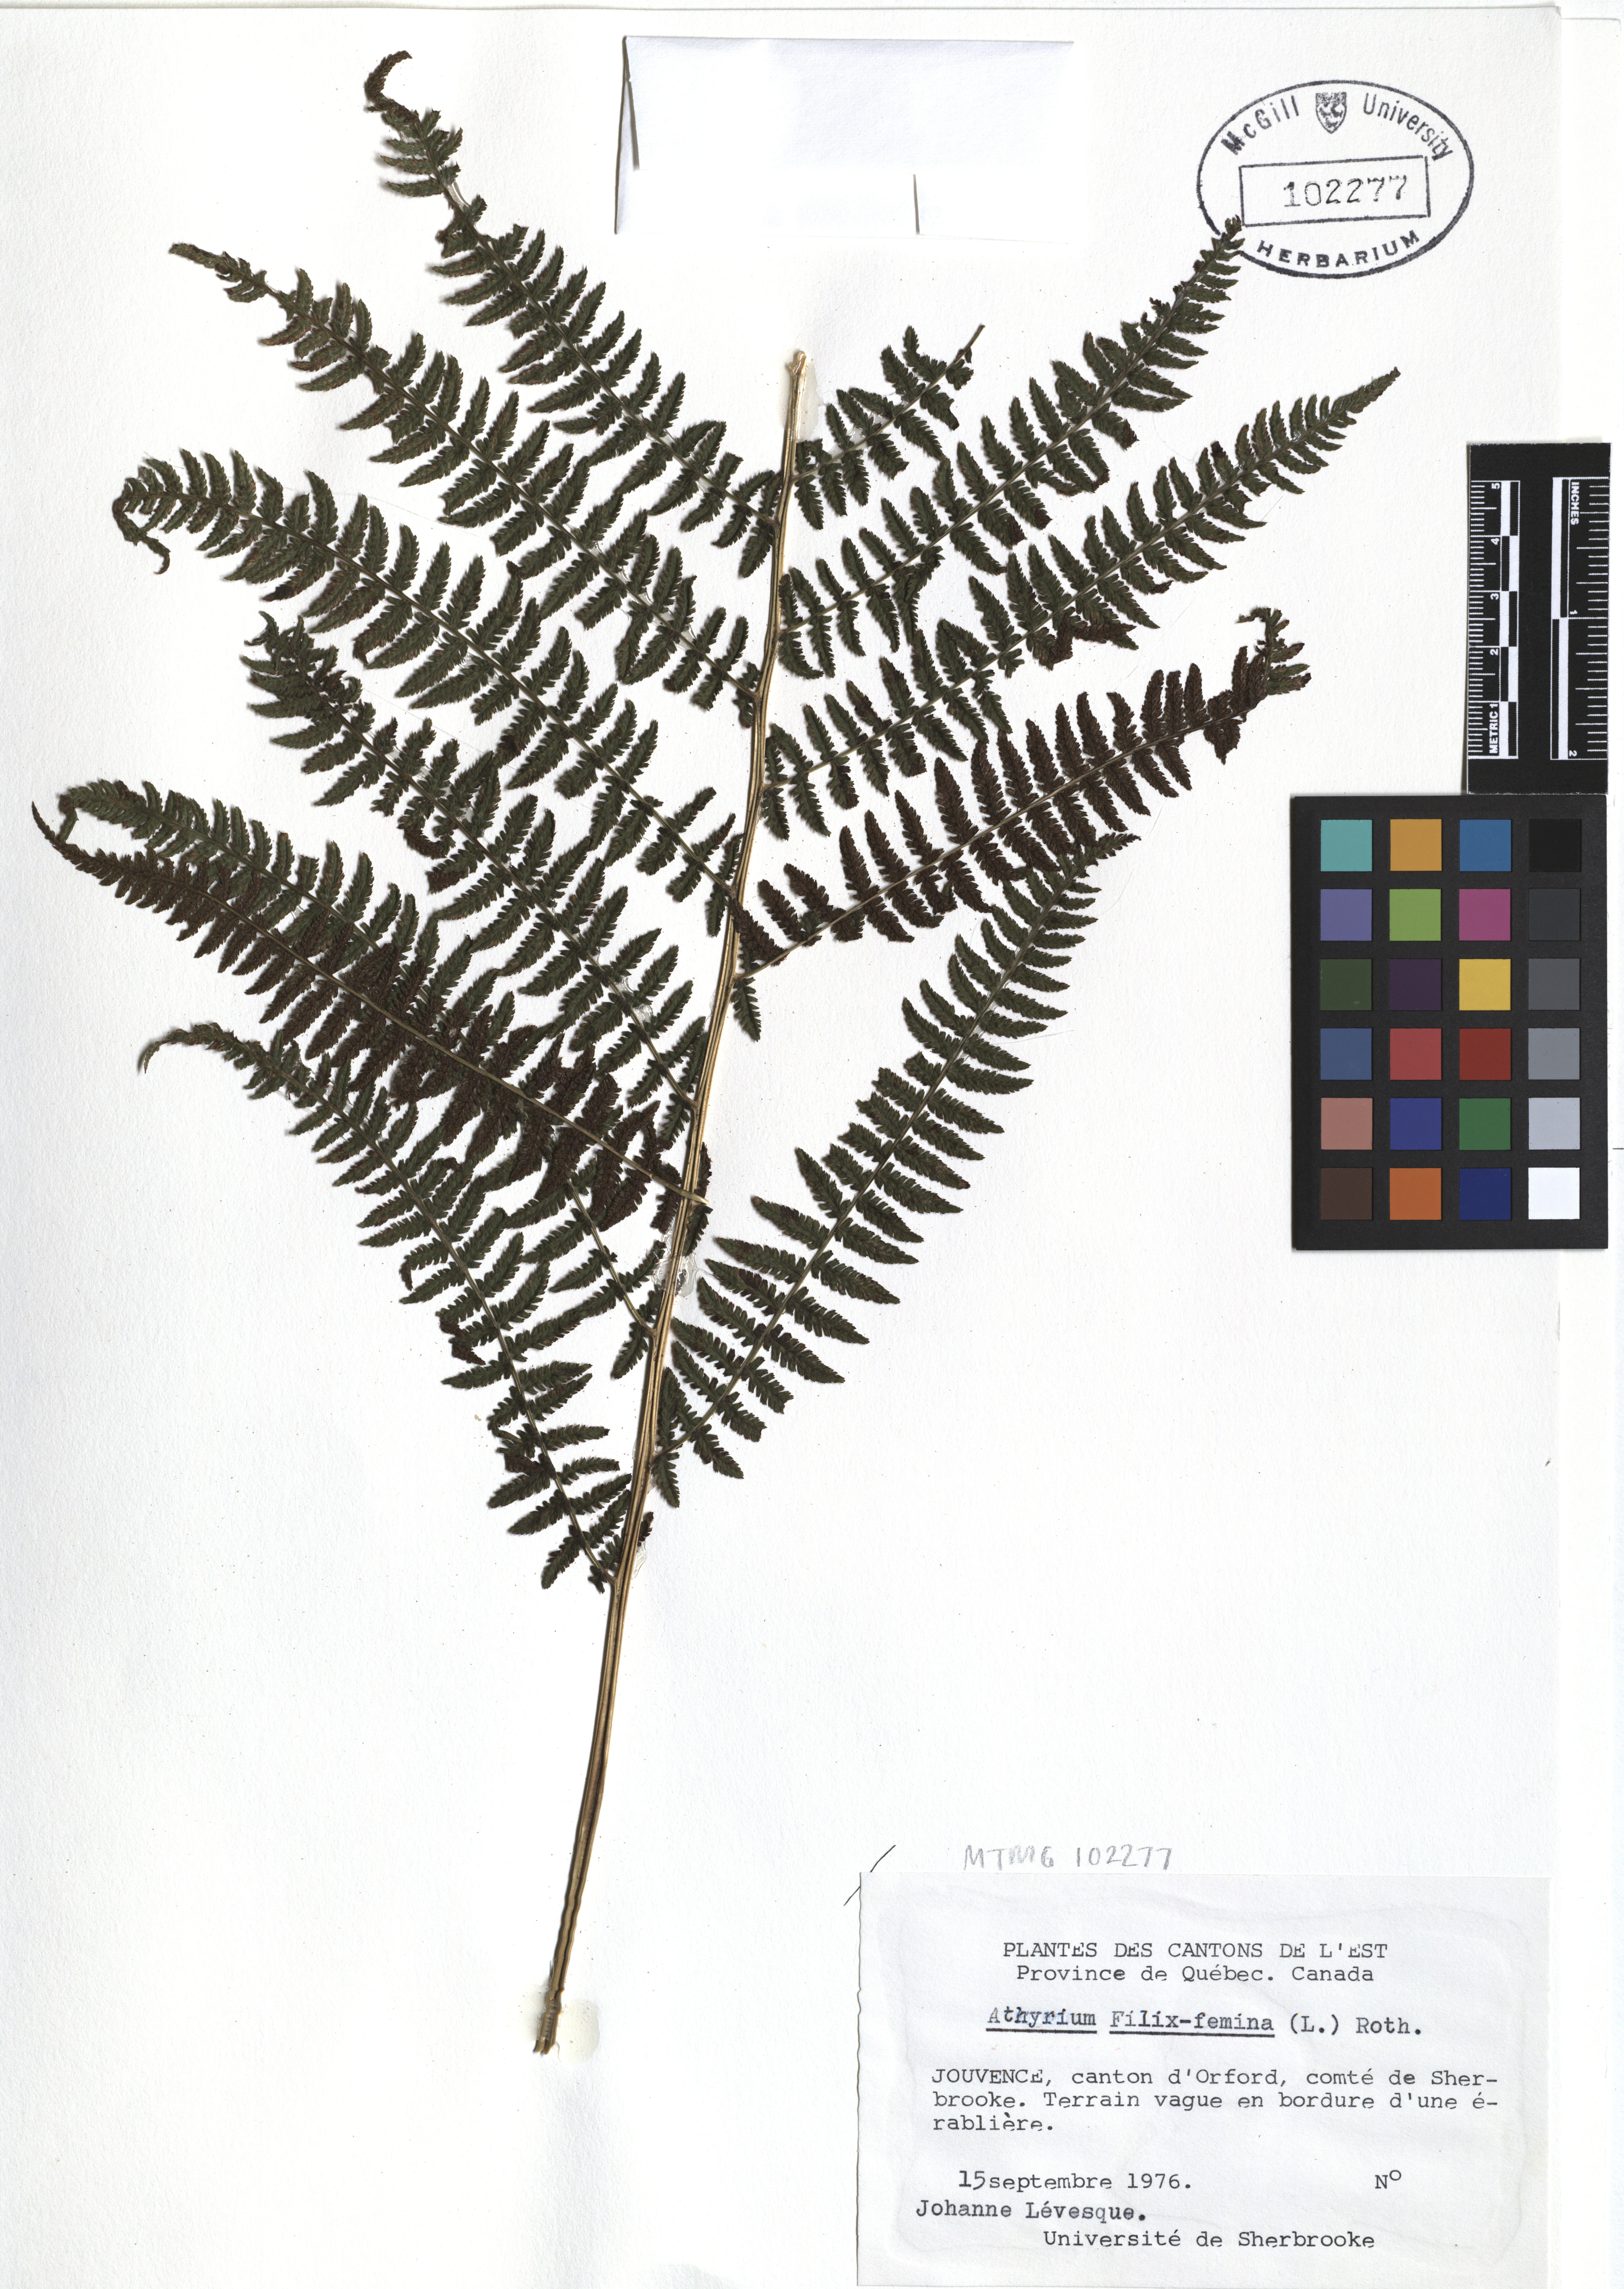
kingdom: Plantae
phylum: Tracheophyta
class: Polypodiopsida
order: Polypodiales
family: Athyriaceae
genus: Athyrium
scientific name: Athyrium filix-femina
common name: Lady fern
